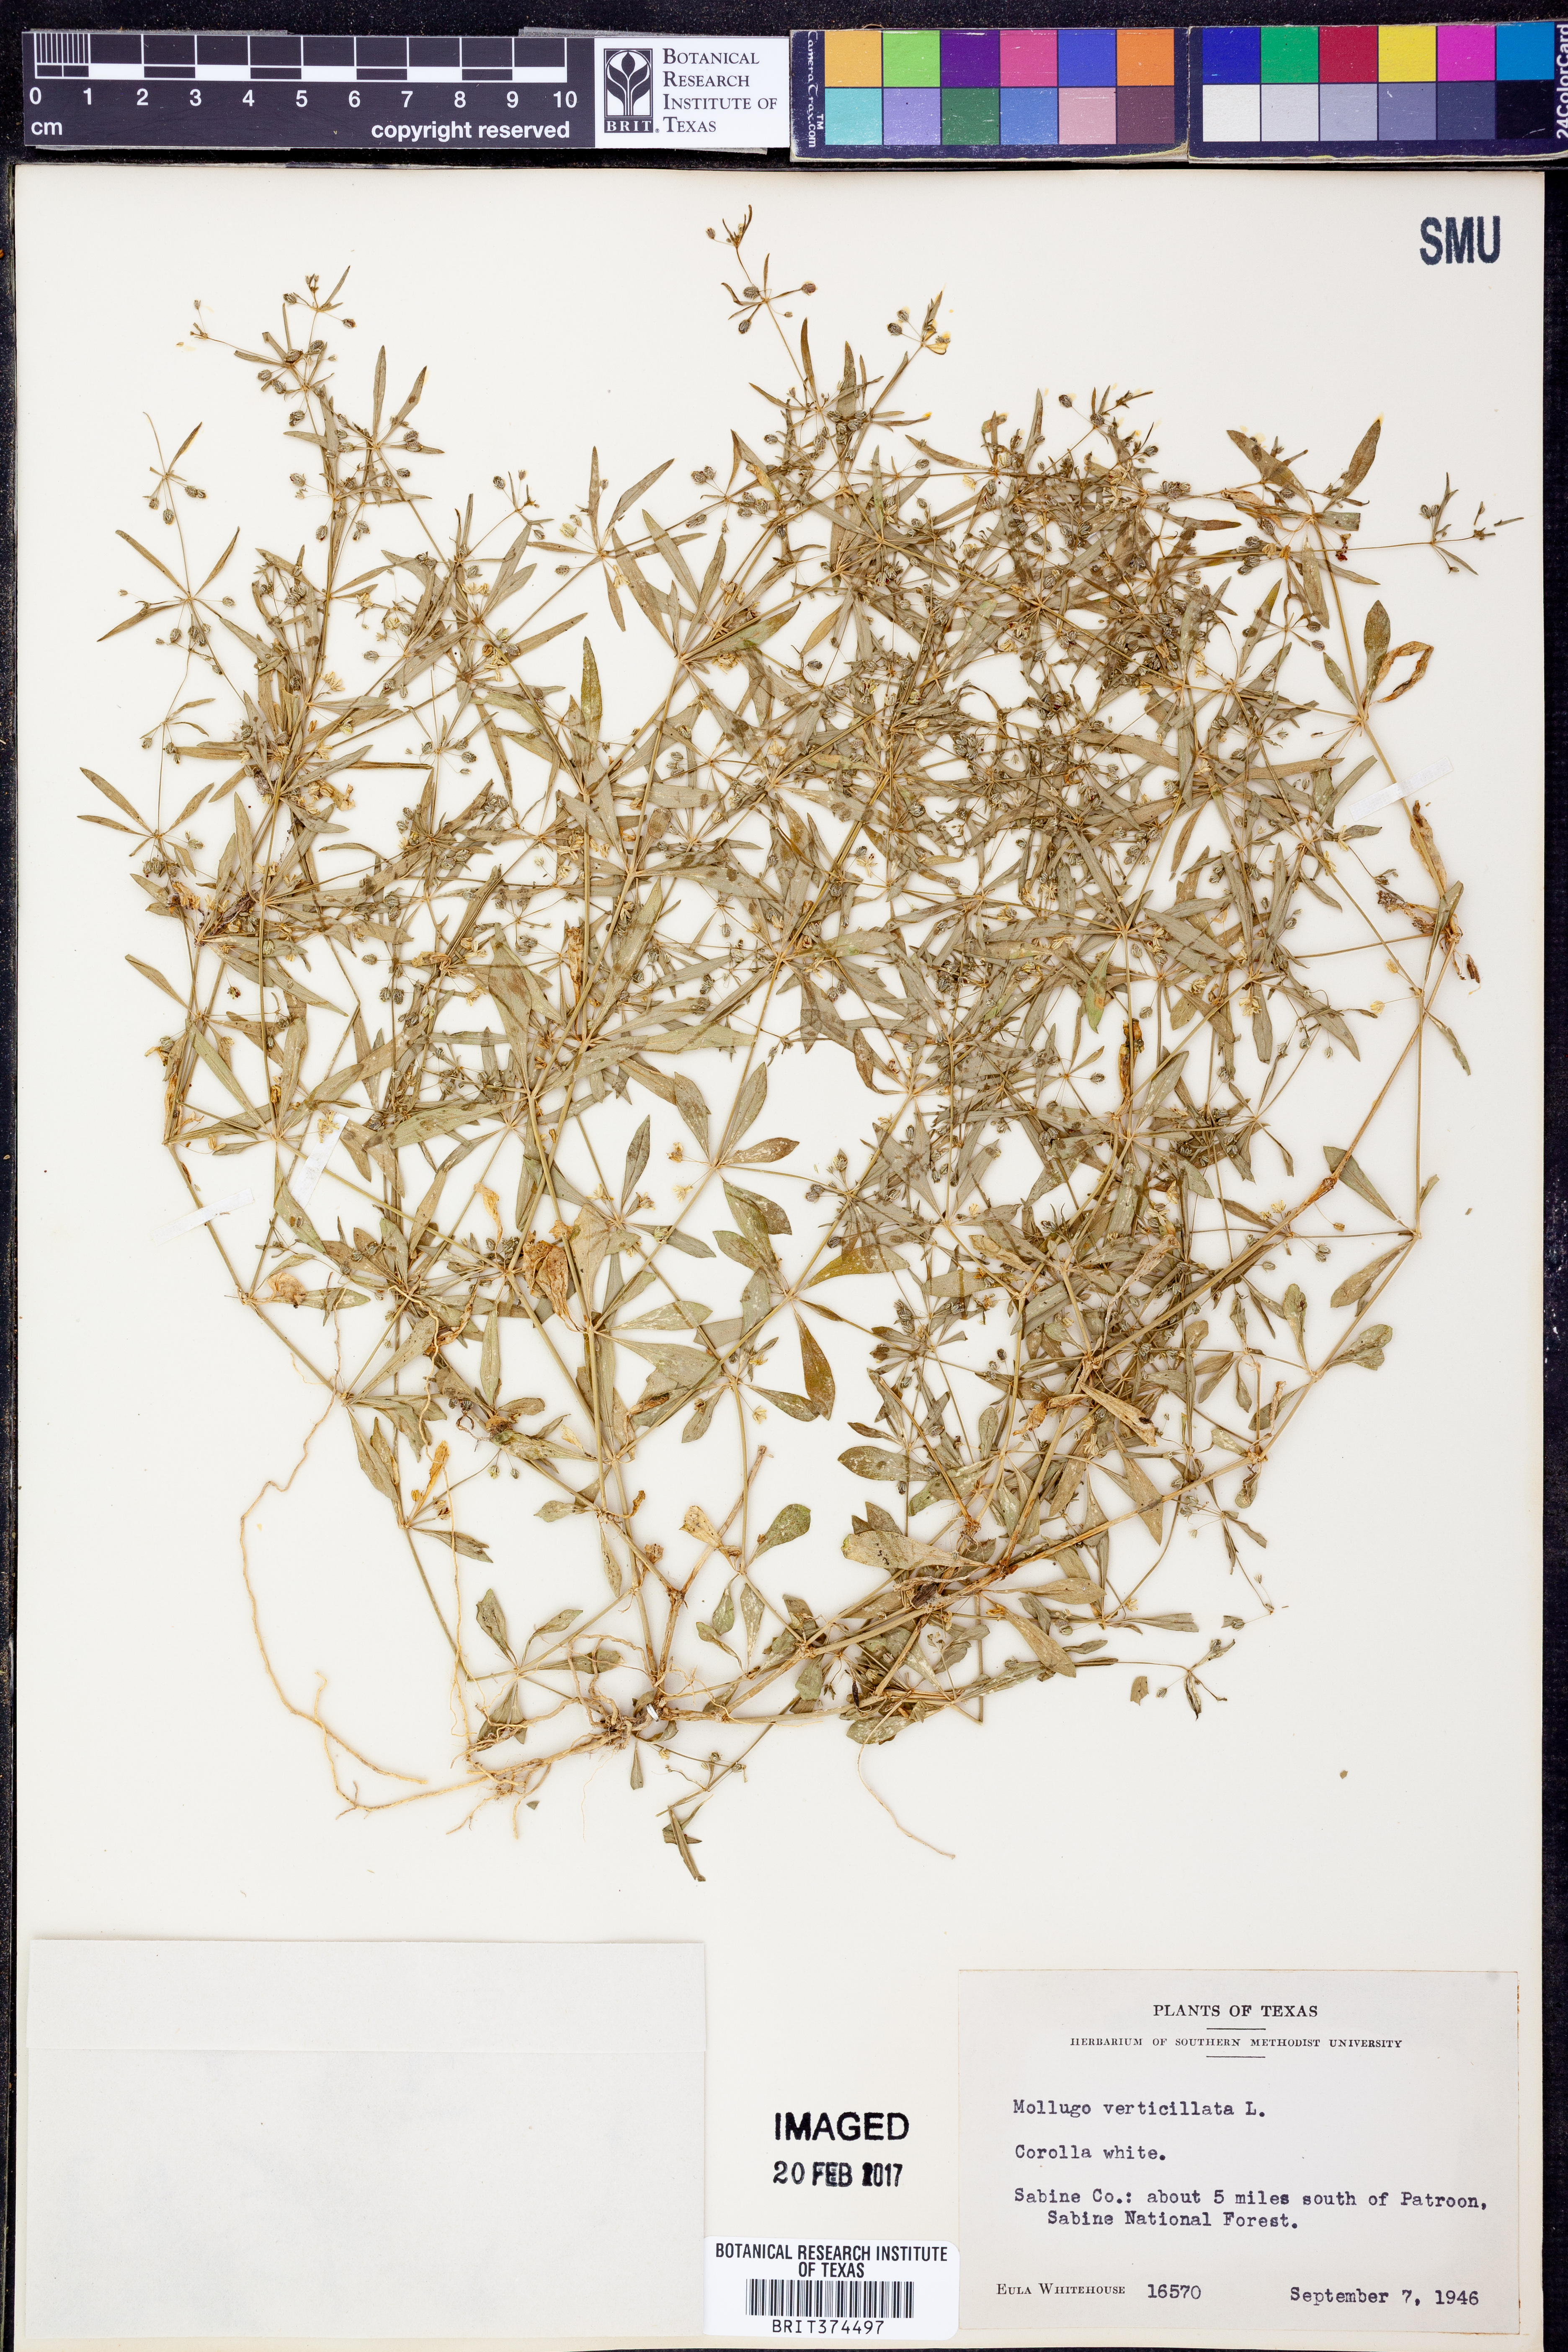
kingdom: Plantae
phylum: Tracheophyta
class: Magnoliopsida
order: Caryophyllales
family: Molluginaceae
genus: Mollugo
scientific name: Mollugo verticillata
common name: Green carpetweed
